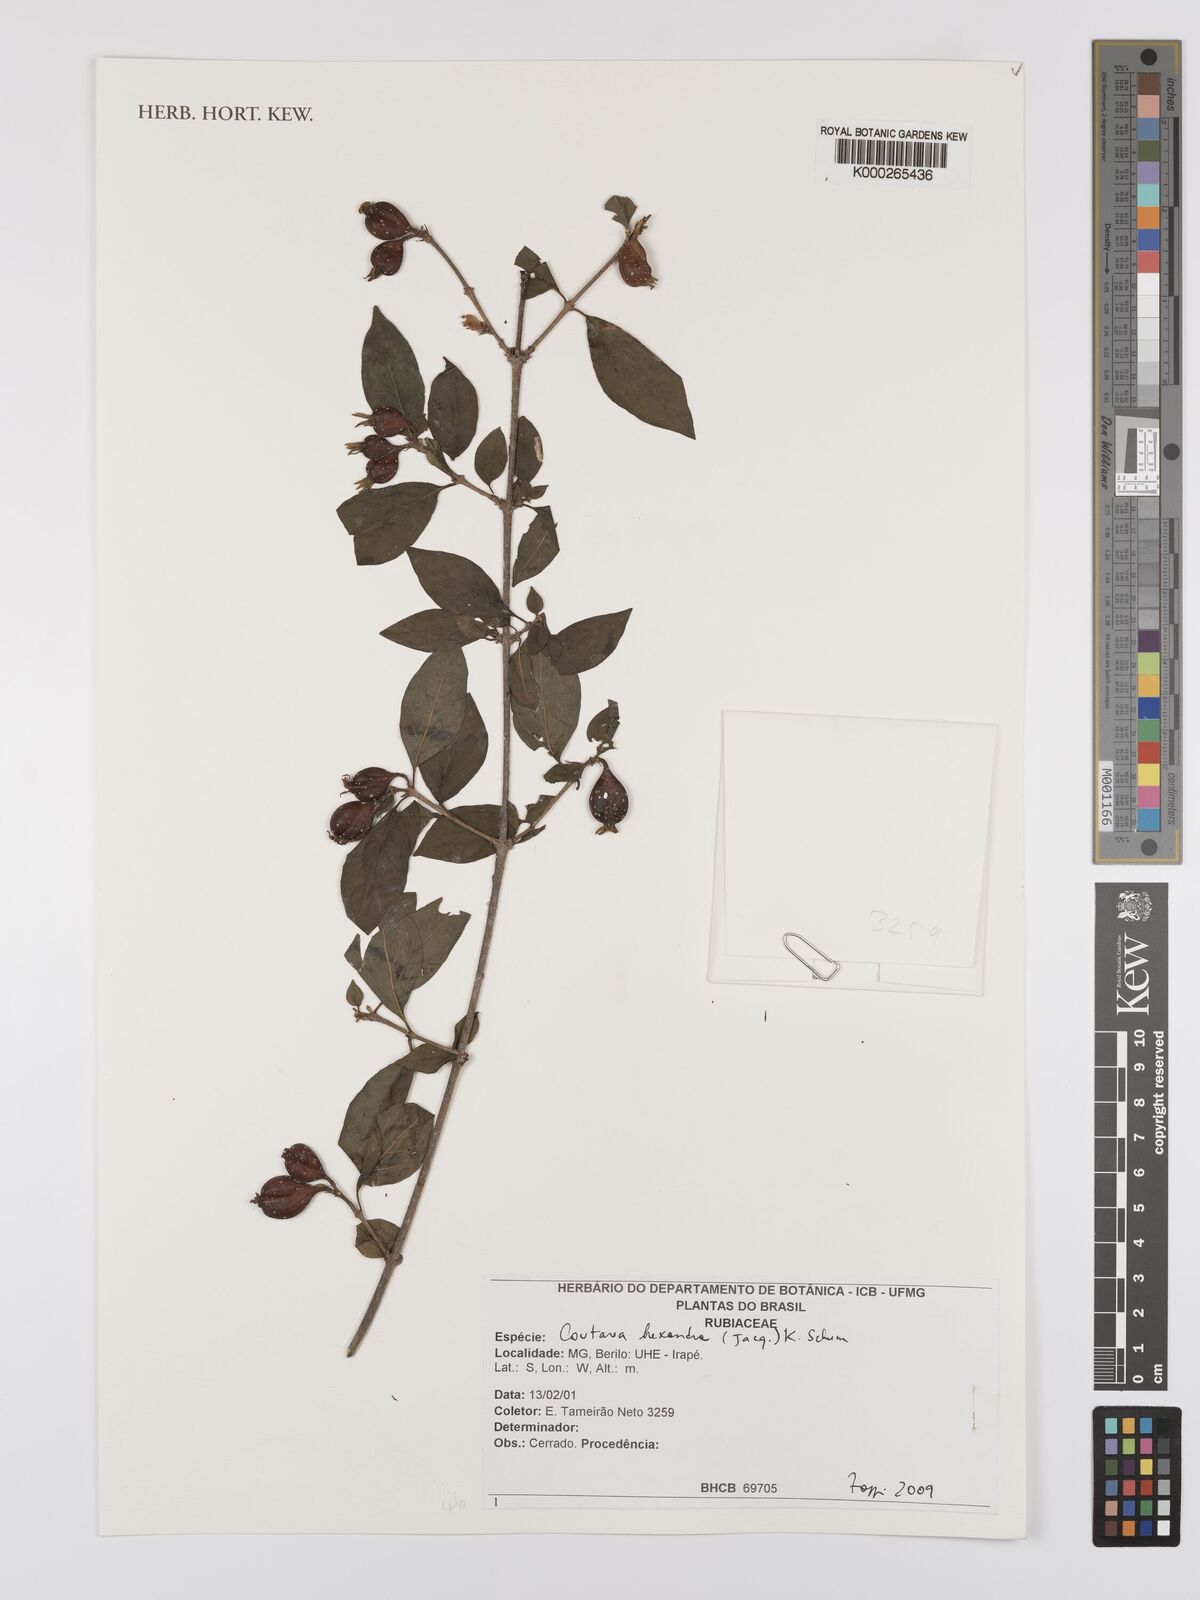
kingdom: Plantae
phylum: Tracheophyta
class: Magnoliopsida
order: Gentianales
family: Rubiaceae
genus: Coutarea
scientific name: Coutarea hexandra
